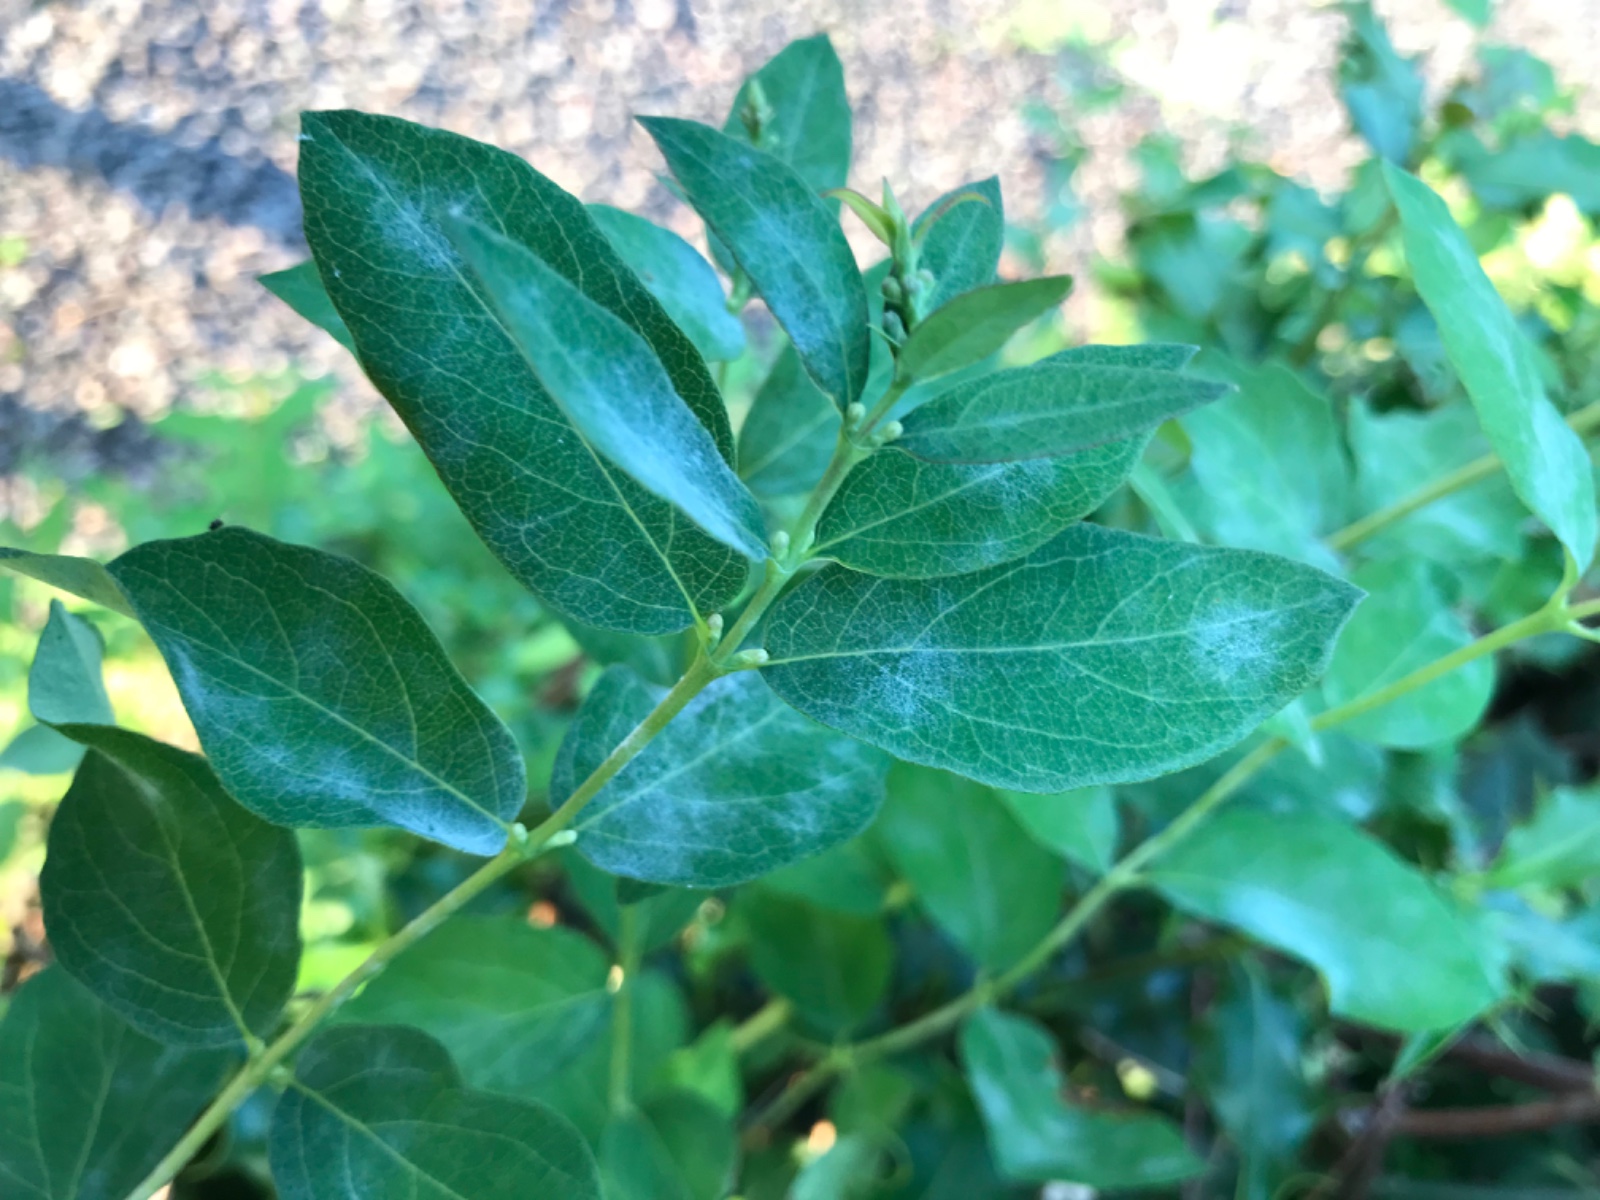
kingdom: Fungi
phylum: Ascomycota
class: Leotiomycetes
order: Helotiales
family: Erysiphaceae
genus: Erysiphe
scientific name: Erysiphe symphoricarpi
